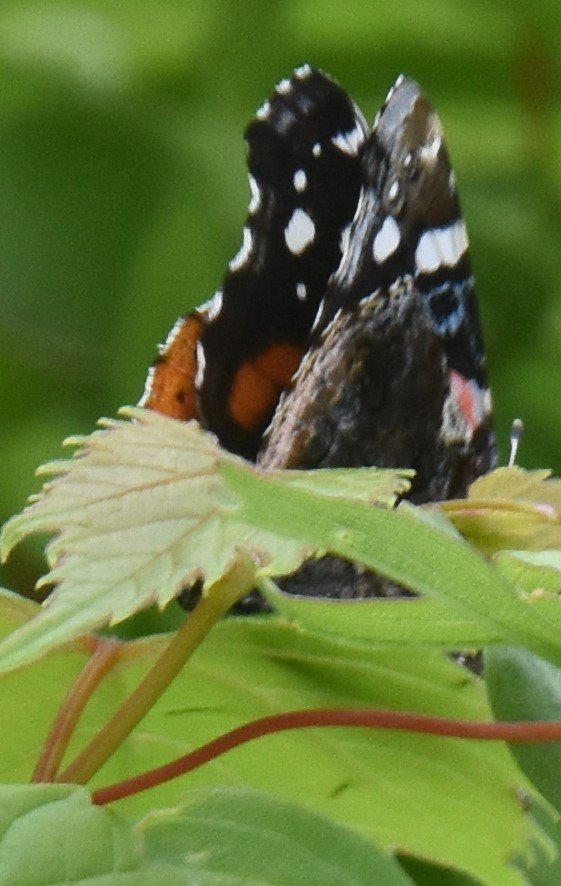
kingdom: Animalia
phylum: Arthropoda
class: Insecta
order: Lepidoptera
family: Nymphalidae
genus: Vanessa
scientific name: Vanessa atalanta
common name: Red Admiral
